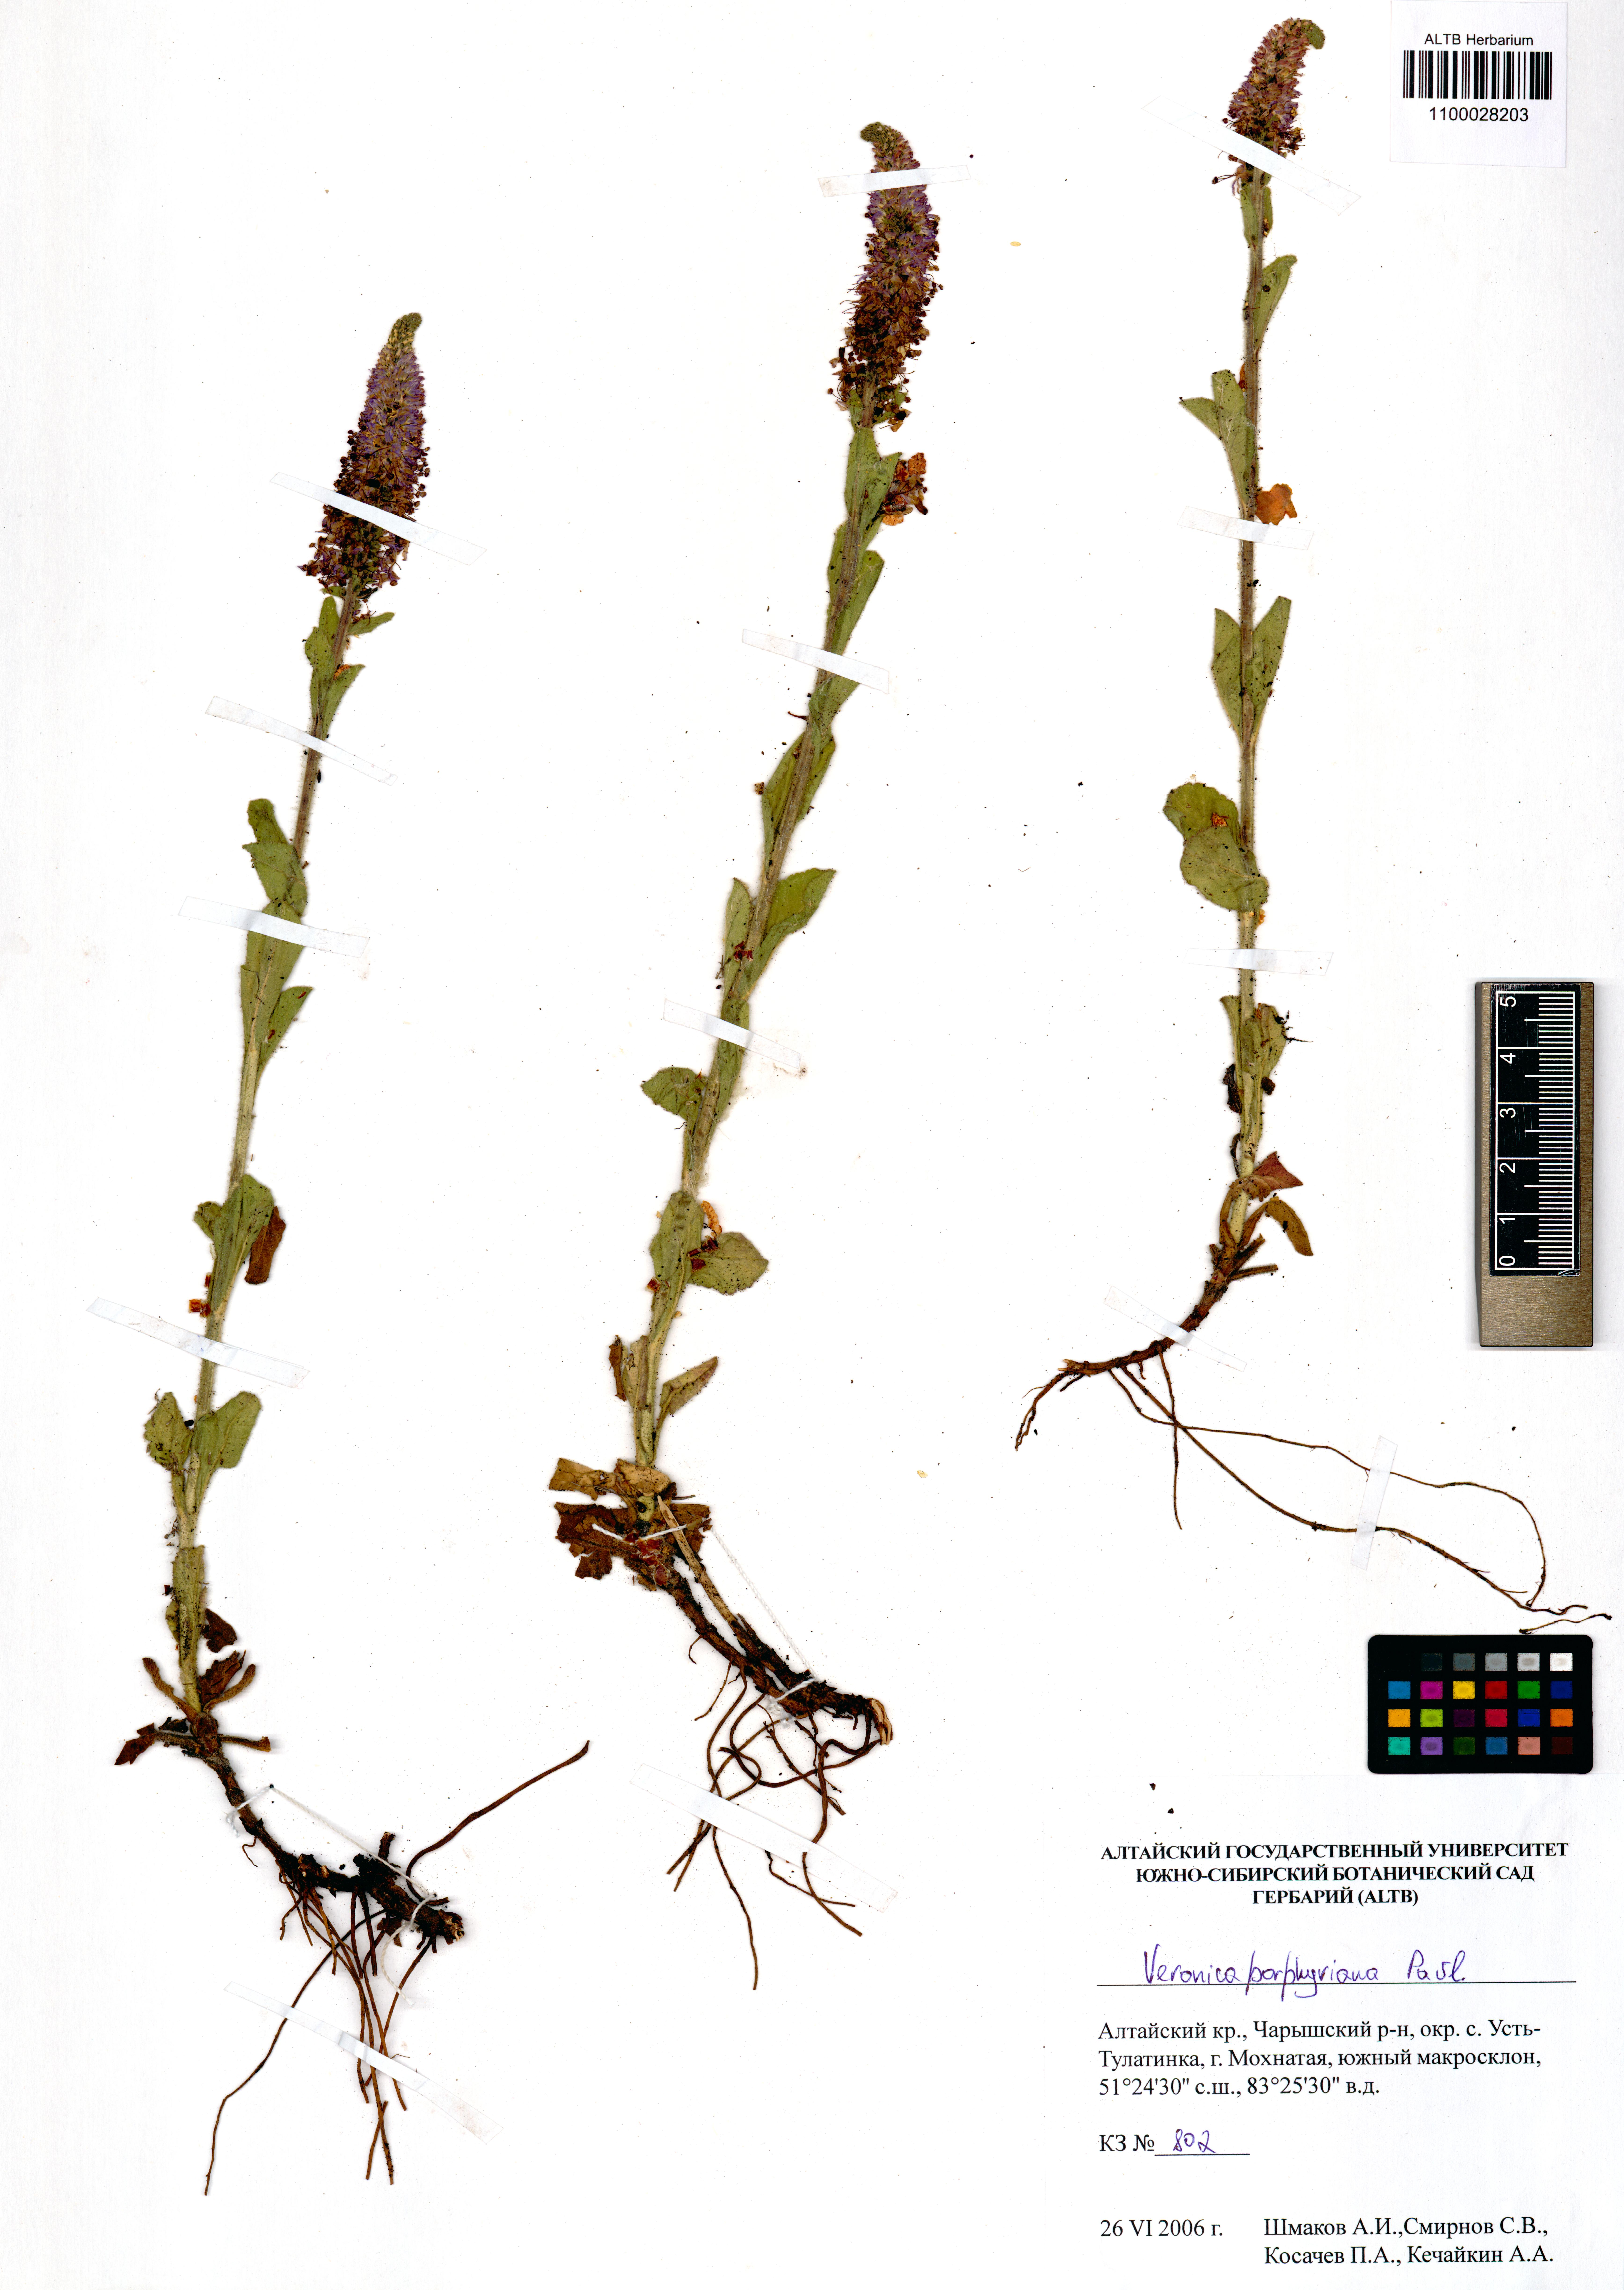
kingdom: Plantae
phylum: Tracheophyta
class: Magnoliopsida
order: Lamiales
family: Plantaginaceae
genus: Veronica
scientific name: Veronica porphyriana
